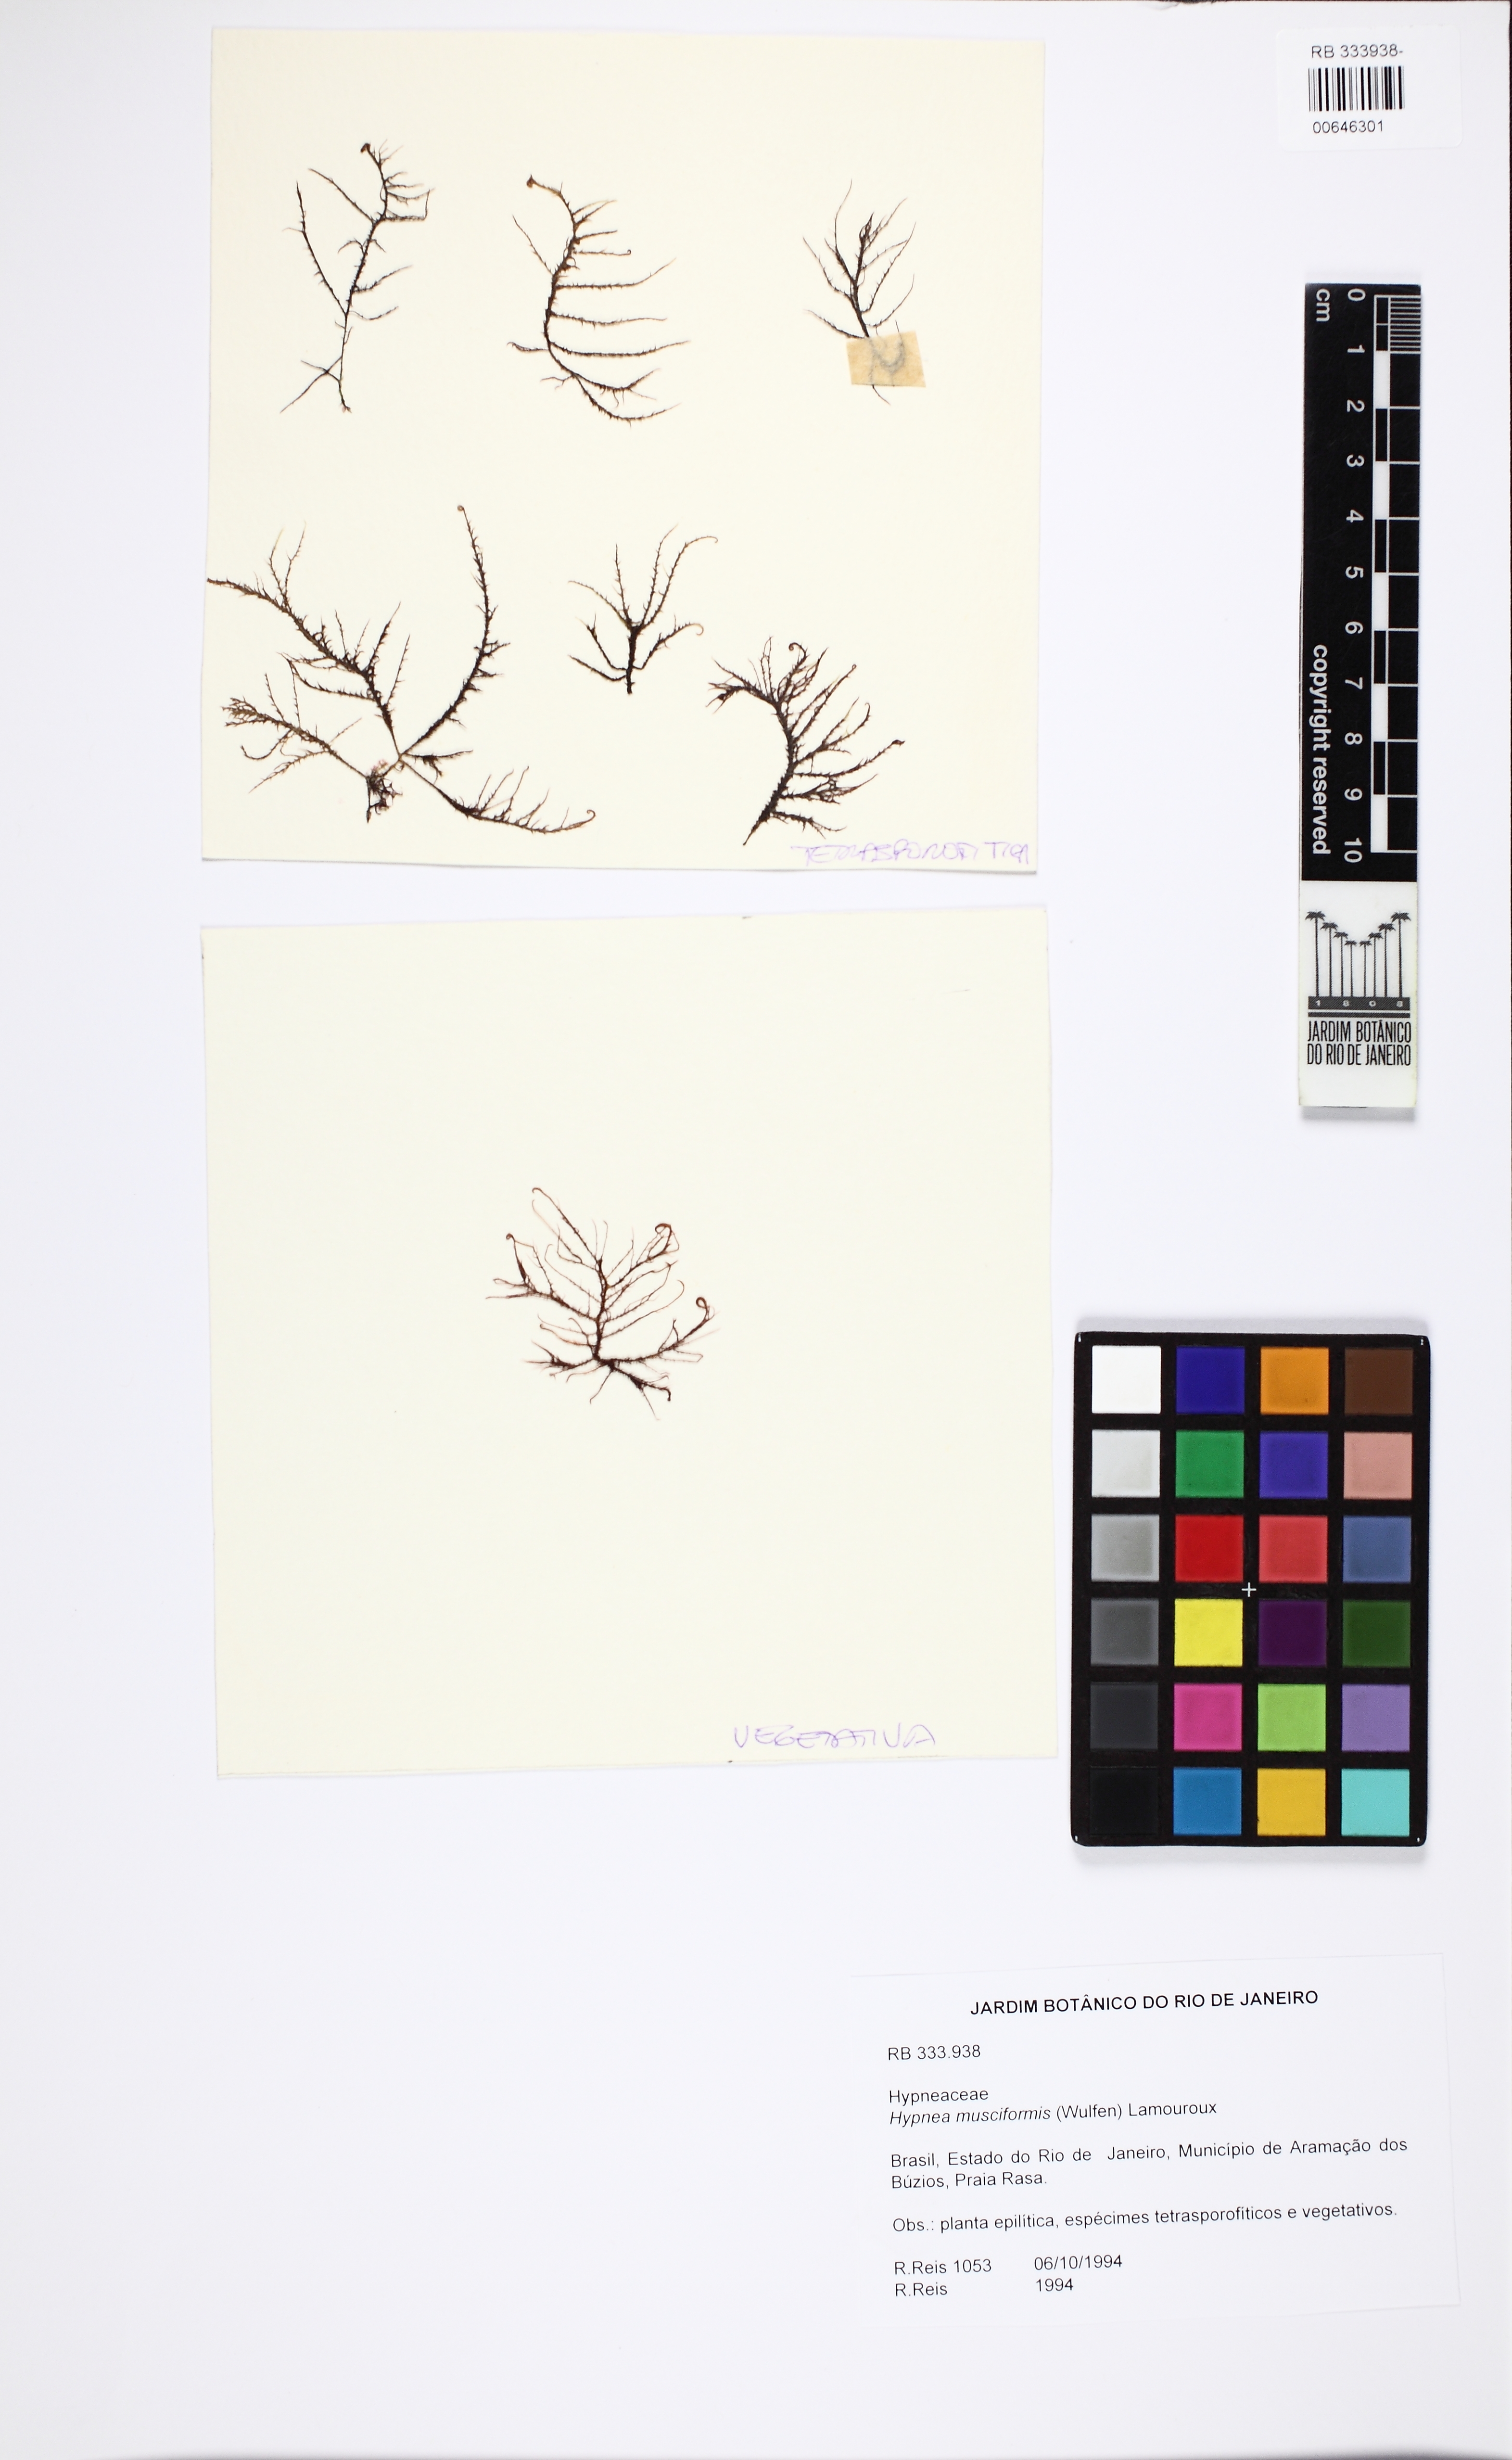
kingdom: Plantae
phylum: Rhodophyta
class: Florideophyceae
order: Gigartinales
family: Cystocloniaceae
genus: Hypnea
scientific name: Hypnea musciformis
